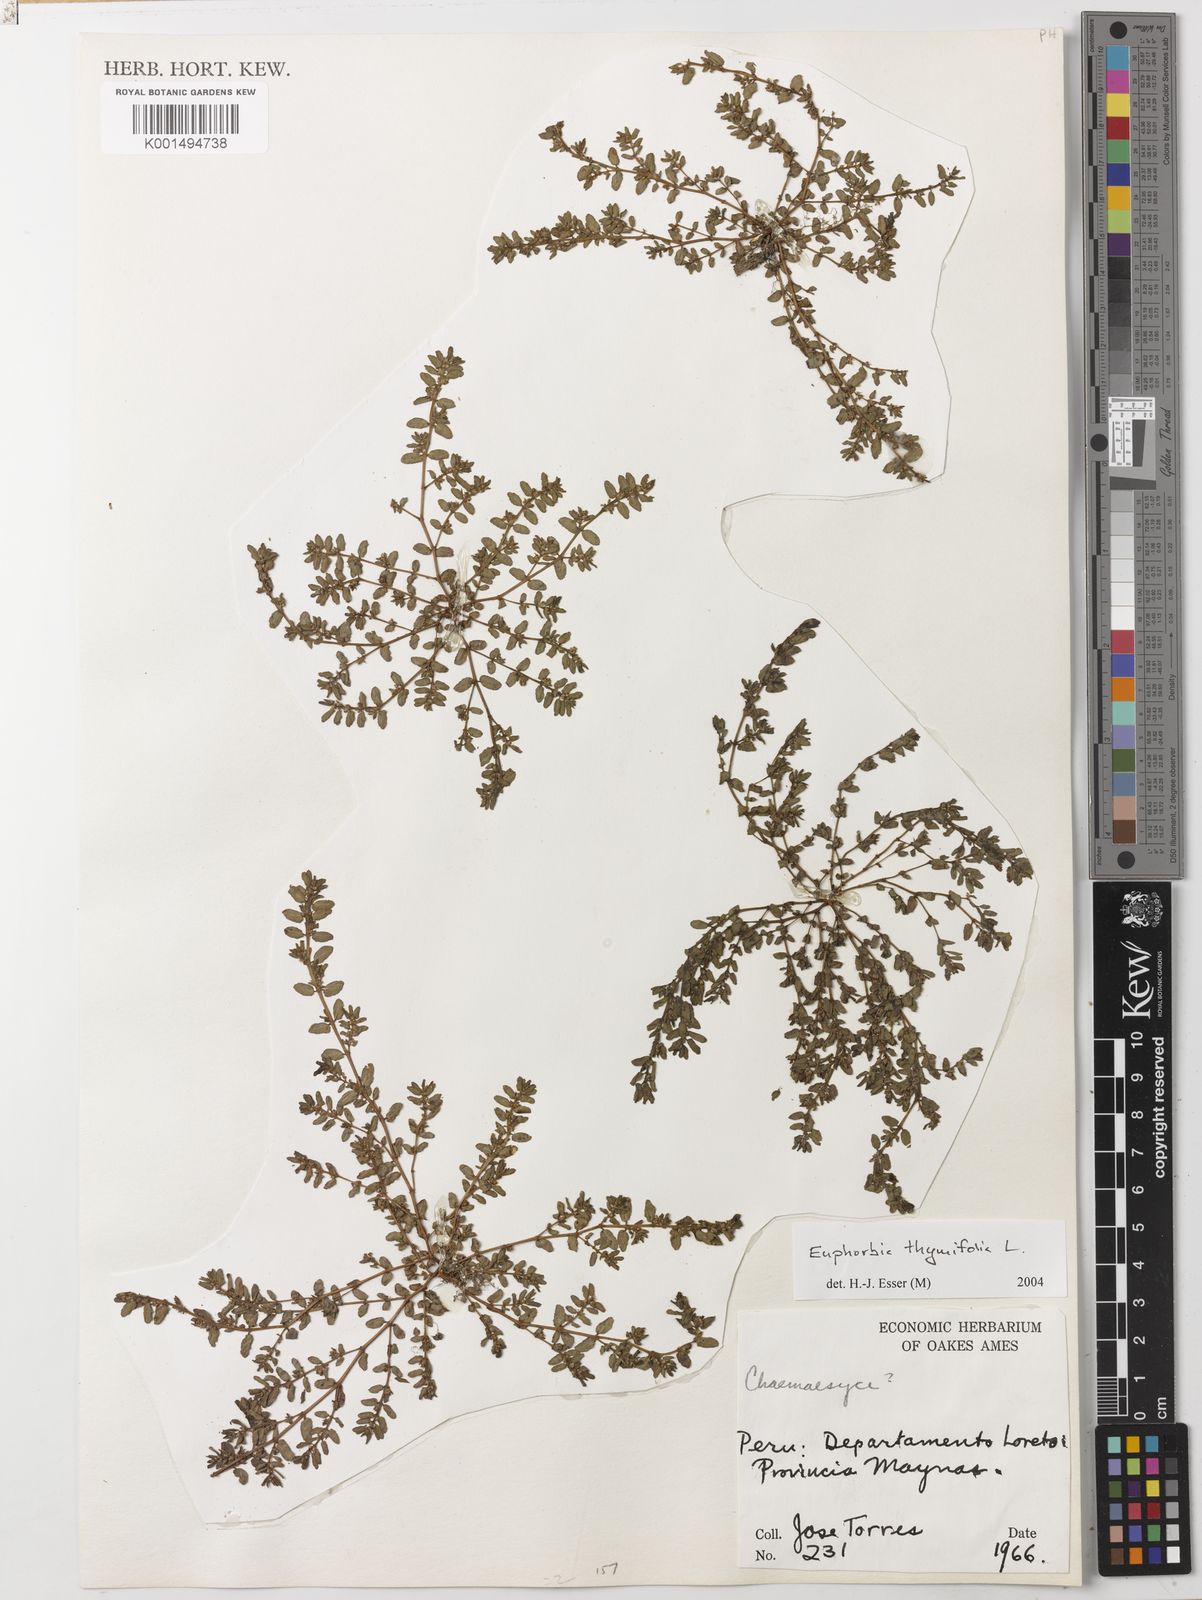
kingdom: Plantae
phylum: Tracheophyta
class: Magnoliopsida
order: Malpighiales
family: Euphorbiaceae
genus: Euphorbia
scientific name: Euphorbia thymifolia
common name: Gulf sandmat
